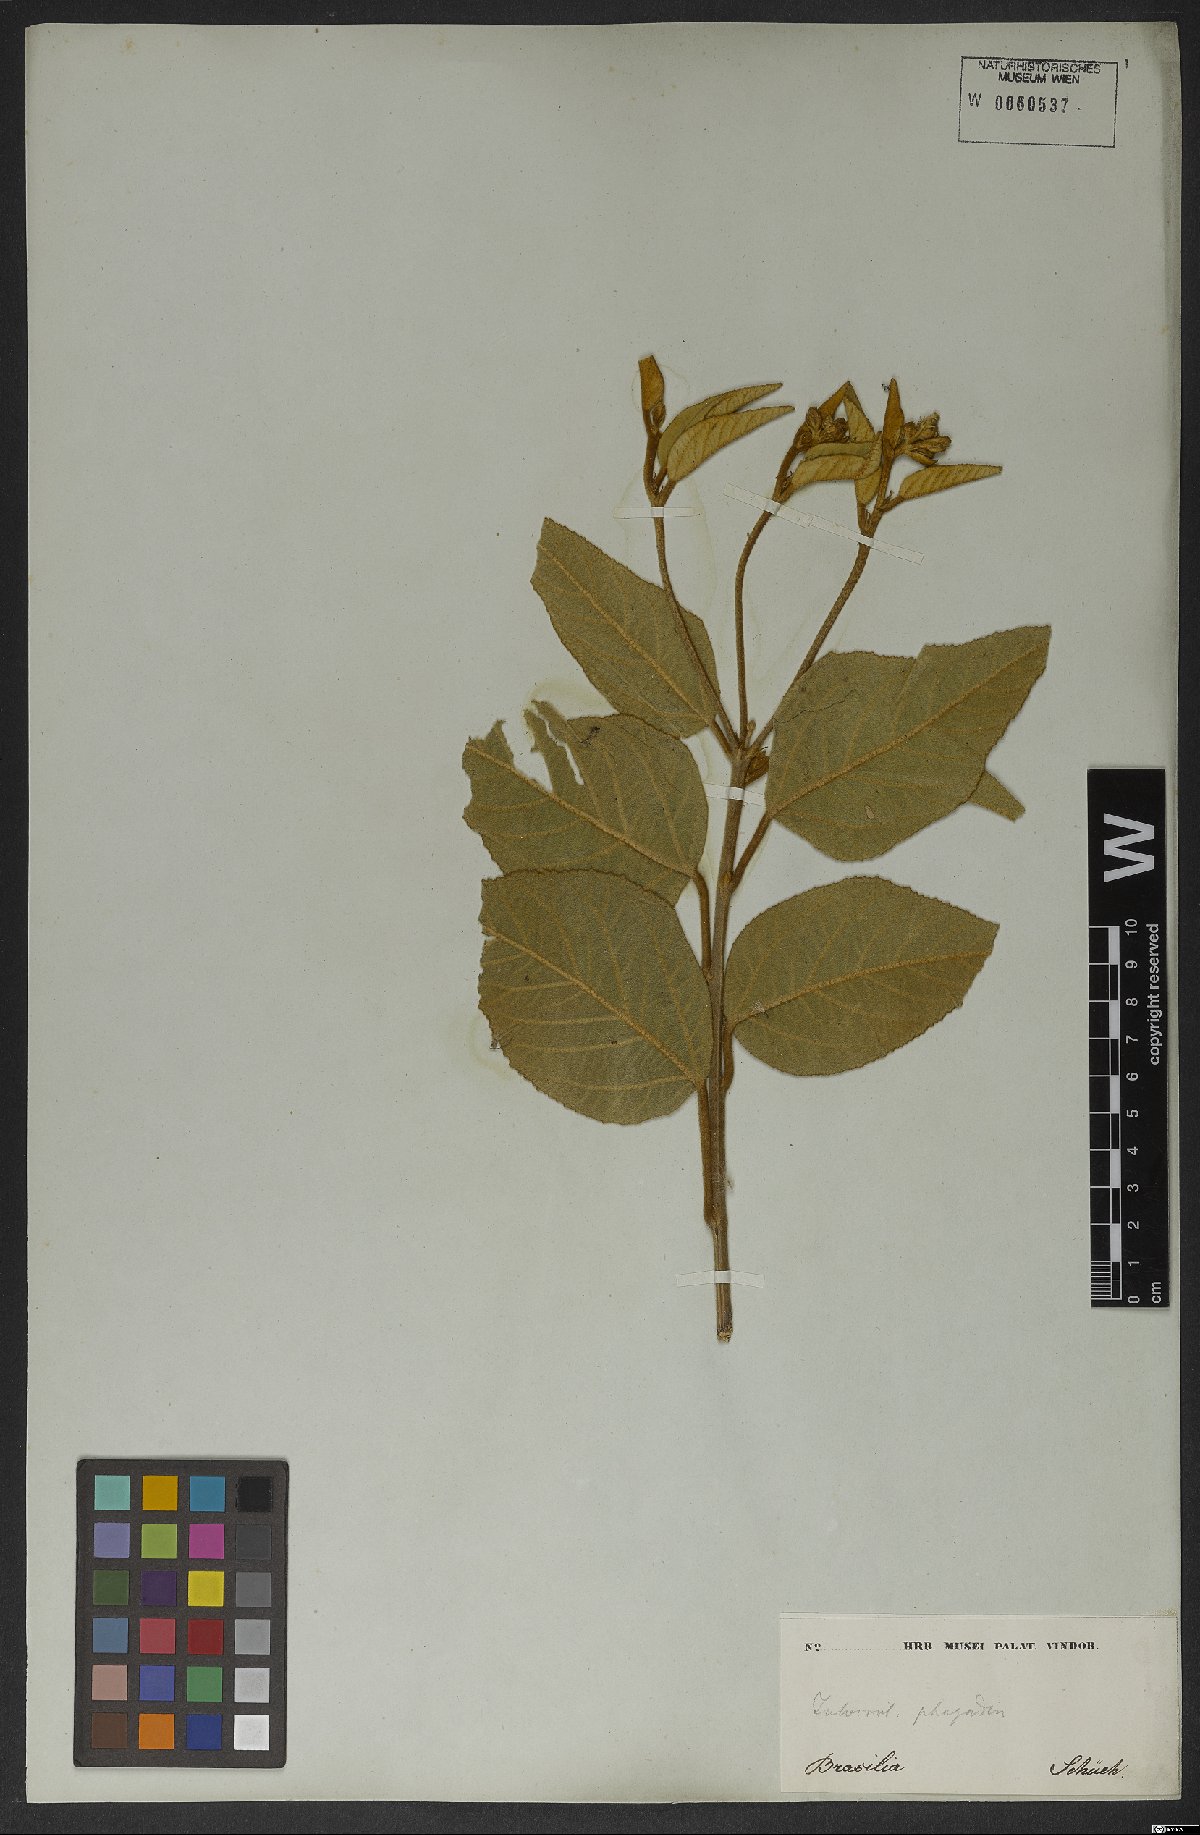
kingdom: Plantae
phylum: Tracheophyta
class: Magnoliopsida
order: Malpighiales
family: Euphorbiaceae
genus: Croton
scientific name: Croton triqueter
